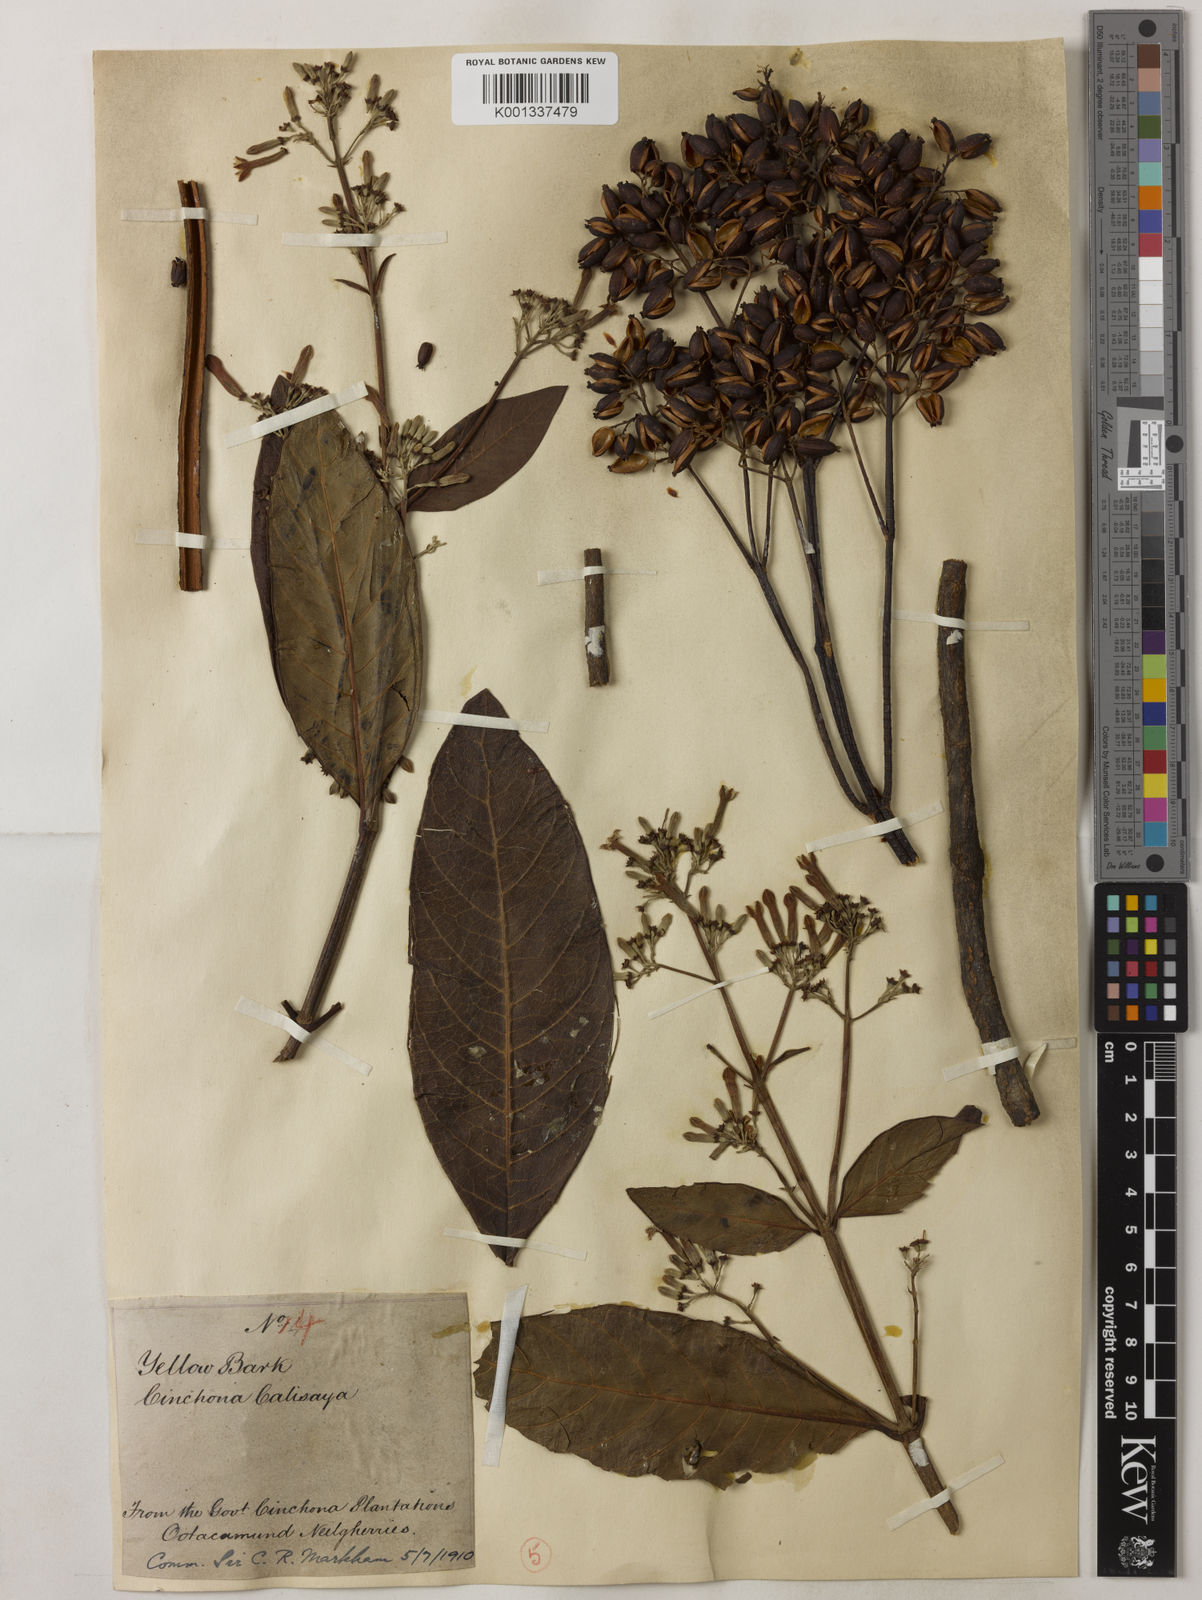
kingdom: Plantae
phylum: Tracheophyta
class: Magnoliopsida
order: Gentianales
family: Rubiaceae
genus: Cinchona
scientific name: Cinchona calisaya
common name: Ledgerbark
